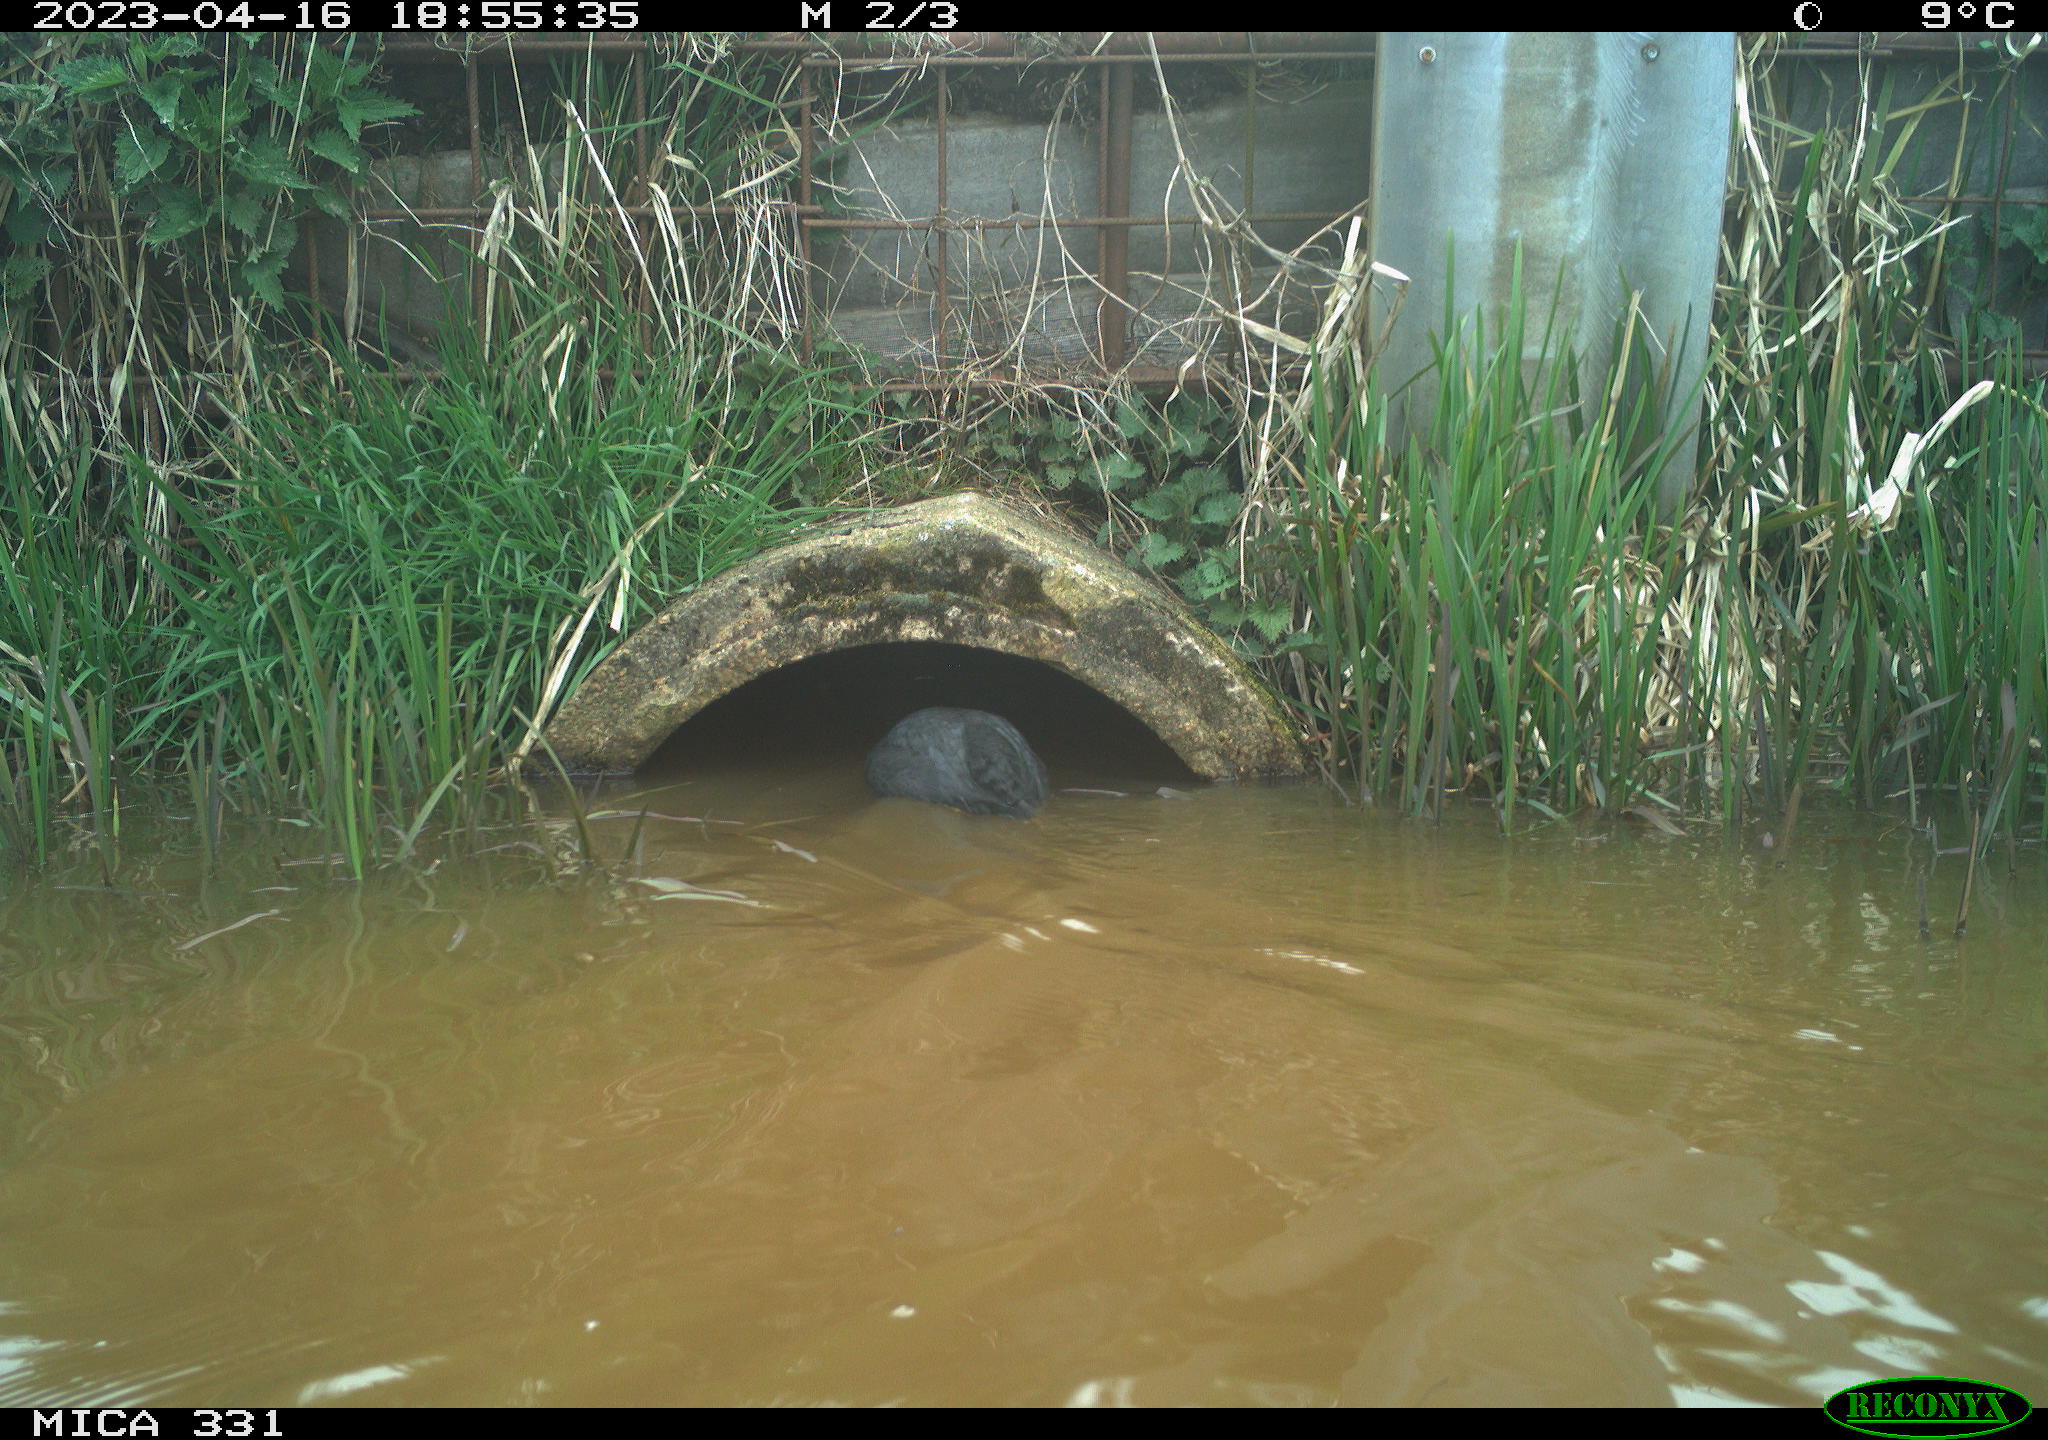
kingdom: Animalia
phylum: Chordata
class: Aves
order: Gruiformes
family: Rallidae
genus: Fulica
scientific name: Fulica atra
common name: Eurasian coot
